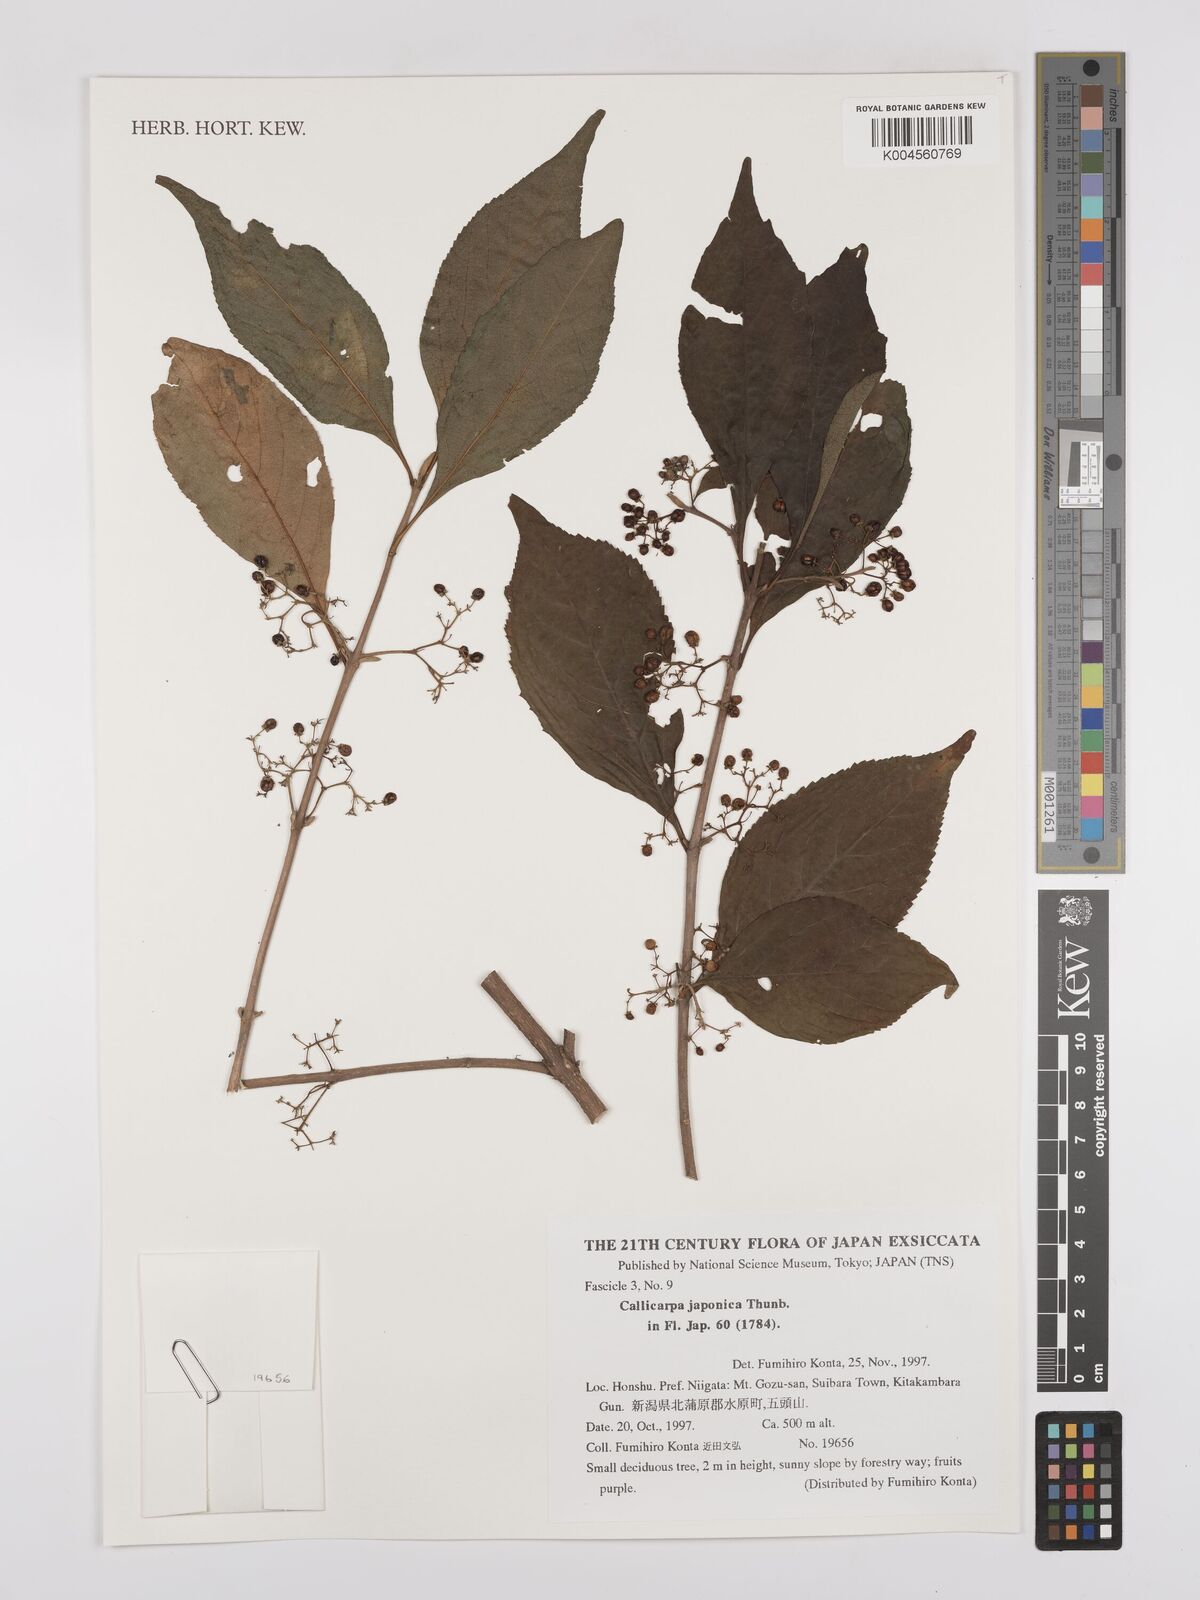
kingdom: Plantae
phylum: Tracheophyta
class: Magnoliopsida
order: Lamiales
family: Lamiaceae
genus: Callicarpa
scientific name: Callicarpa japonica
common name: Japanese beauty-berry
